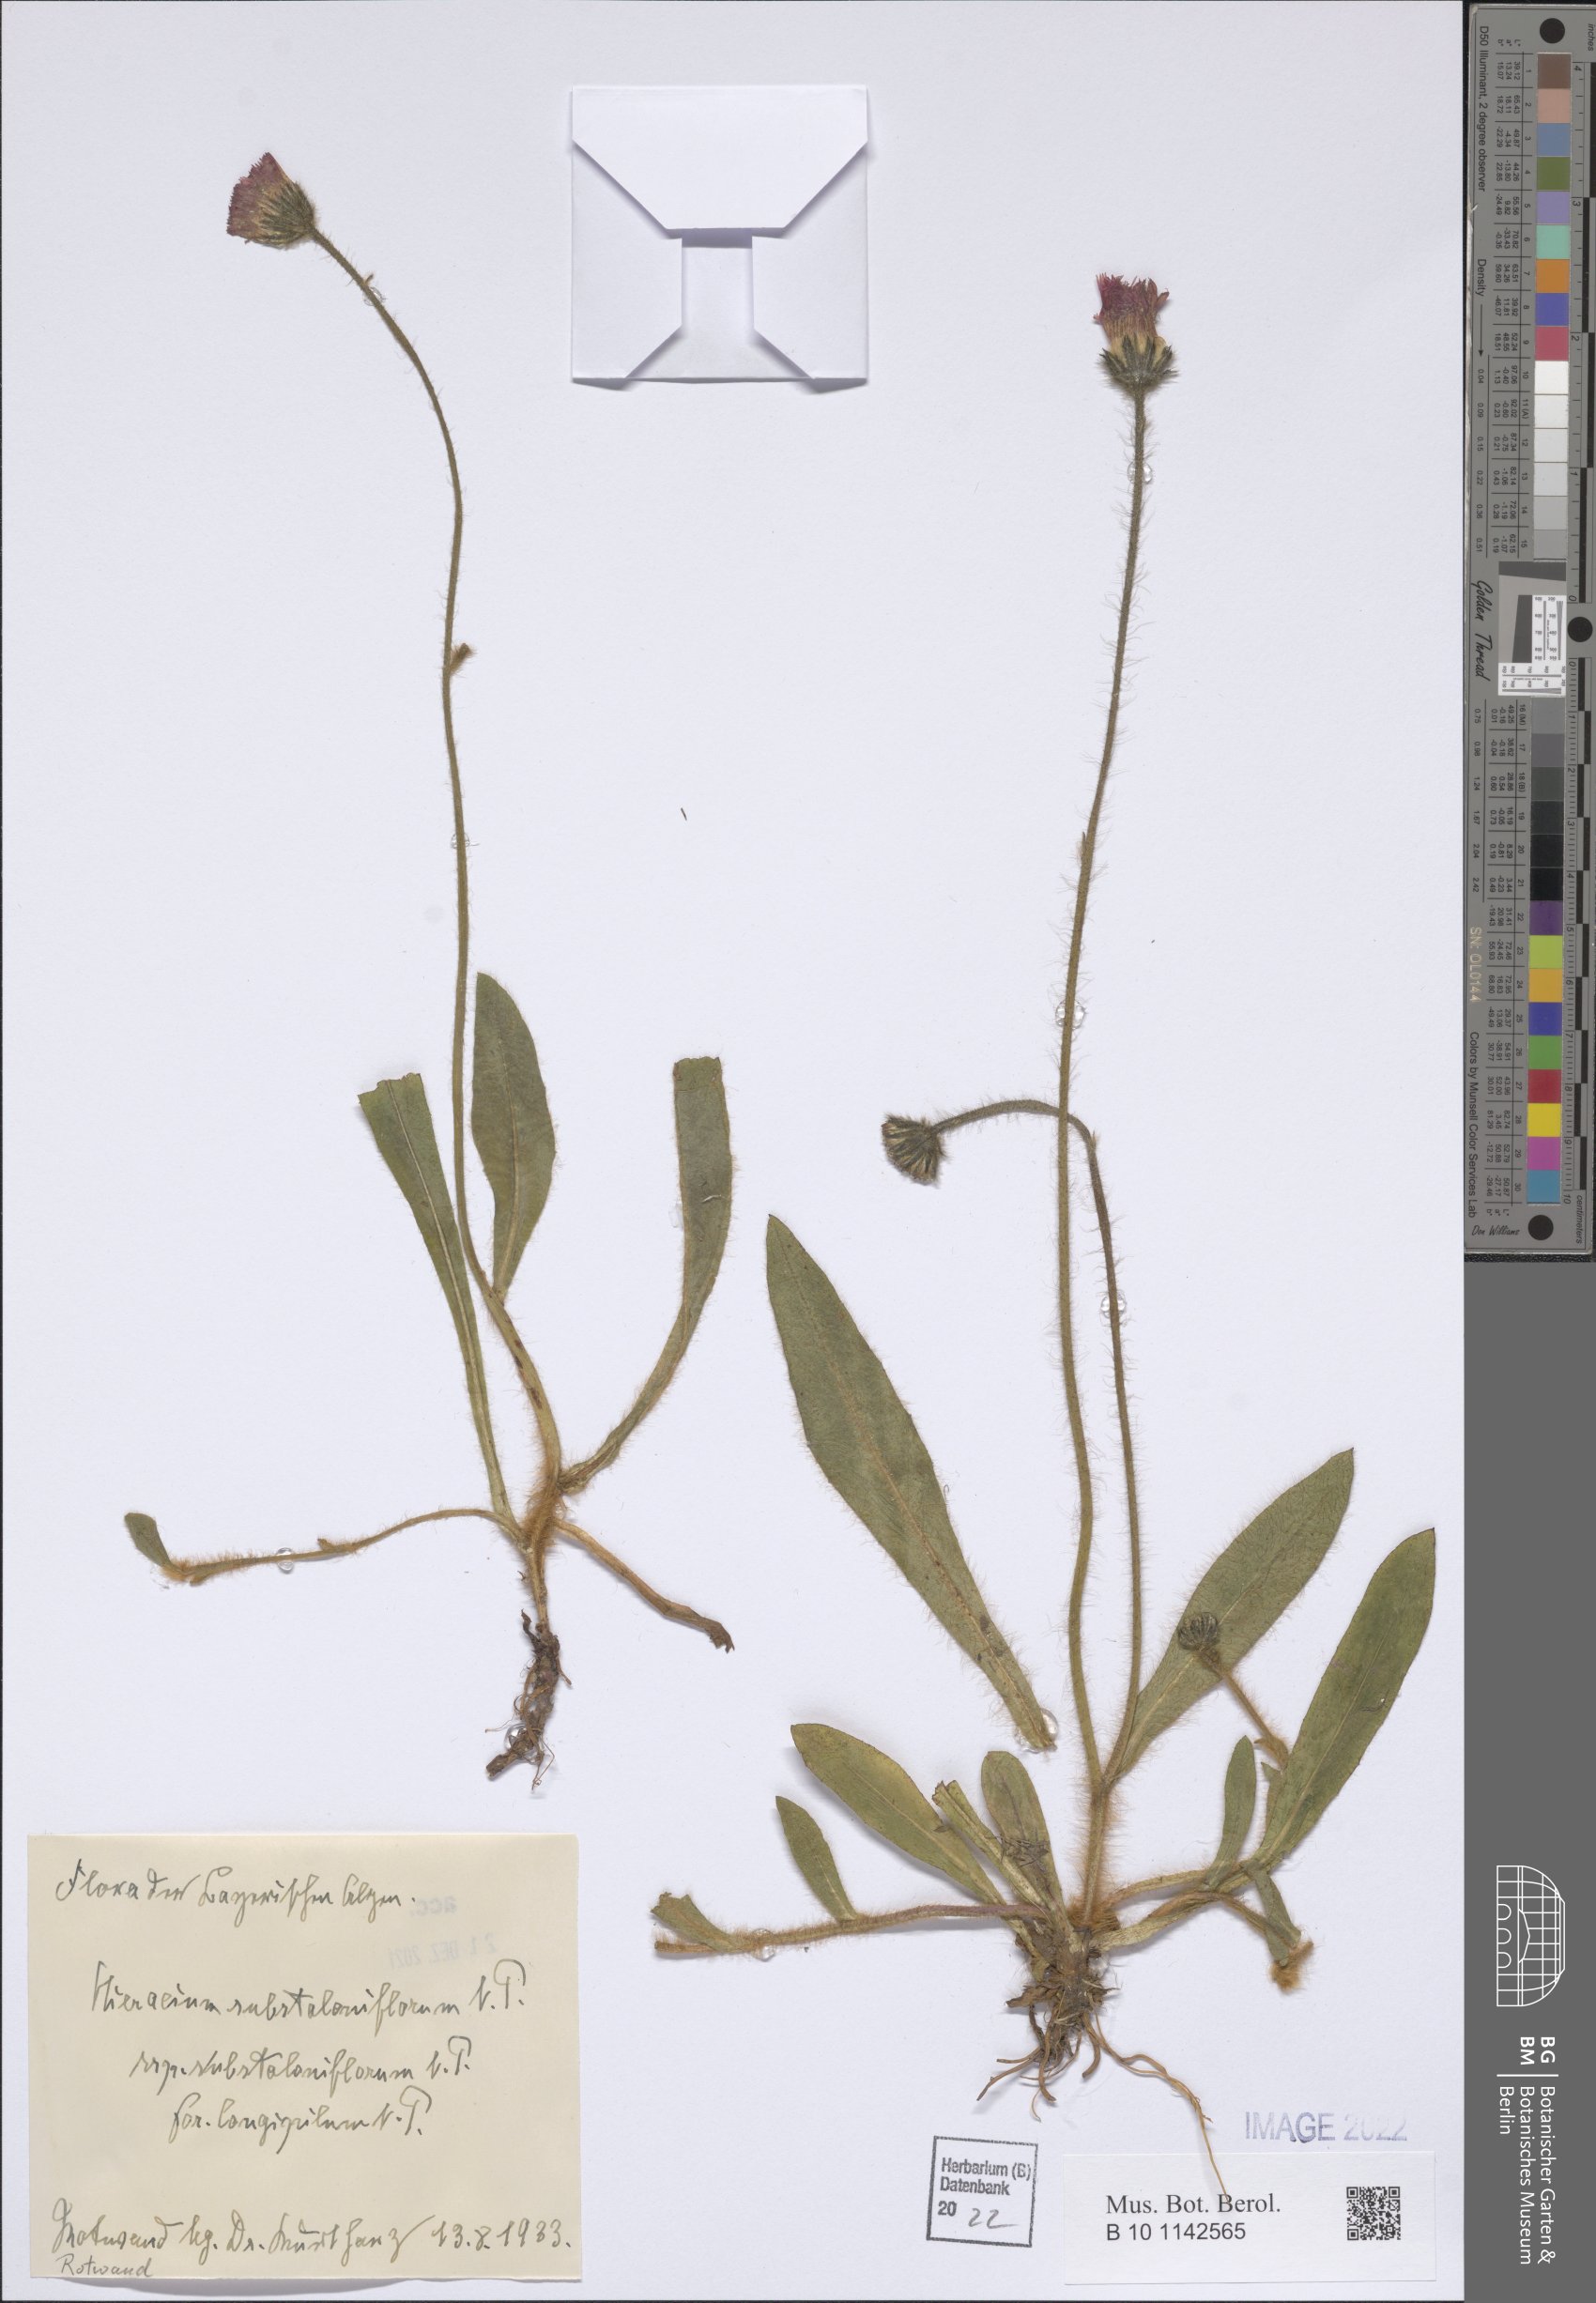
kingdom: Plantae
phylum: Tracheophyta
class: Magnoliopsida
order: Asterales
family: Asteraceae
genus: Pilosella
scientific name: Pilosella rubra
